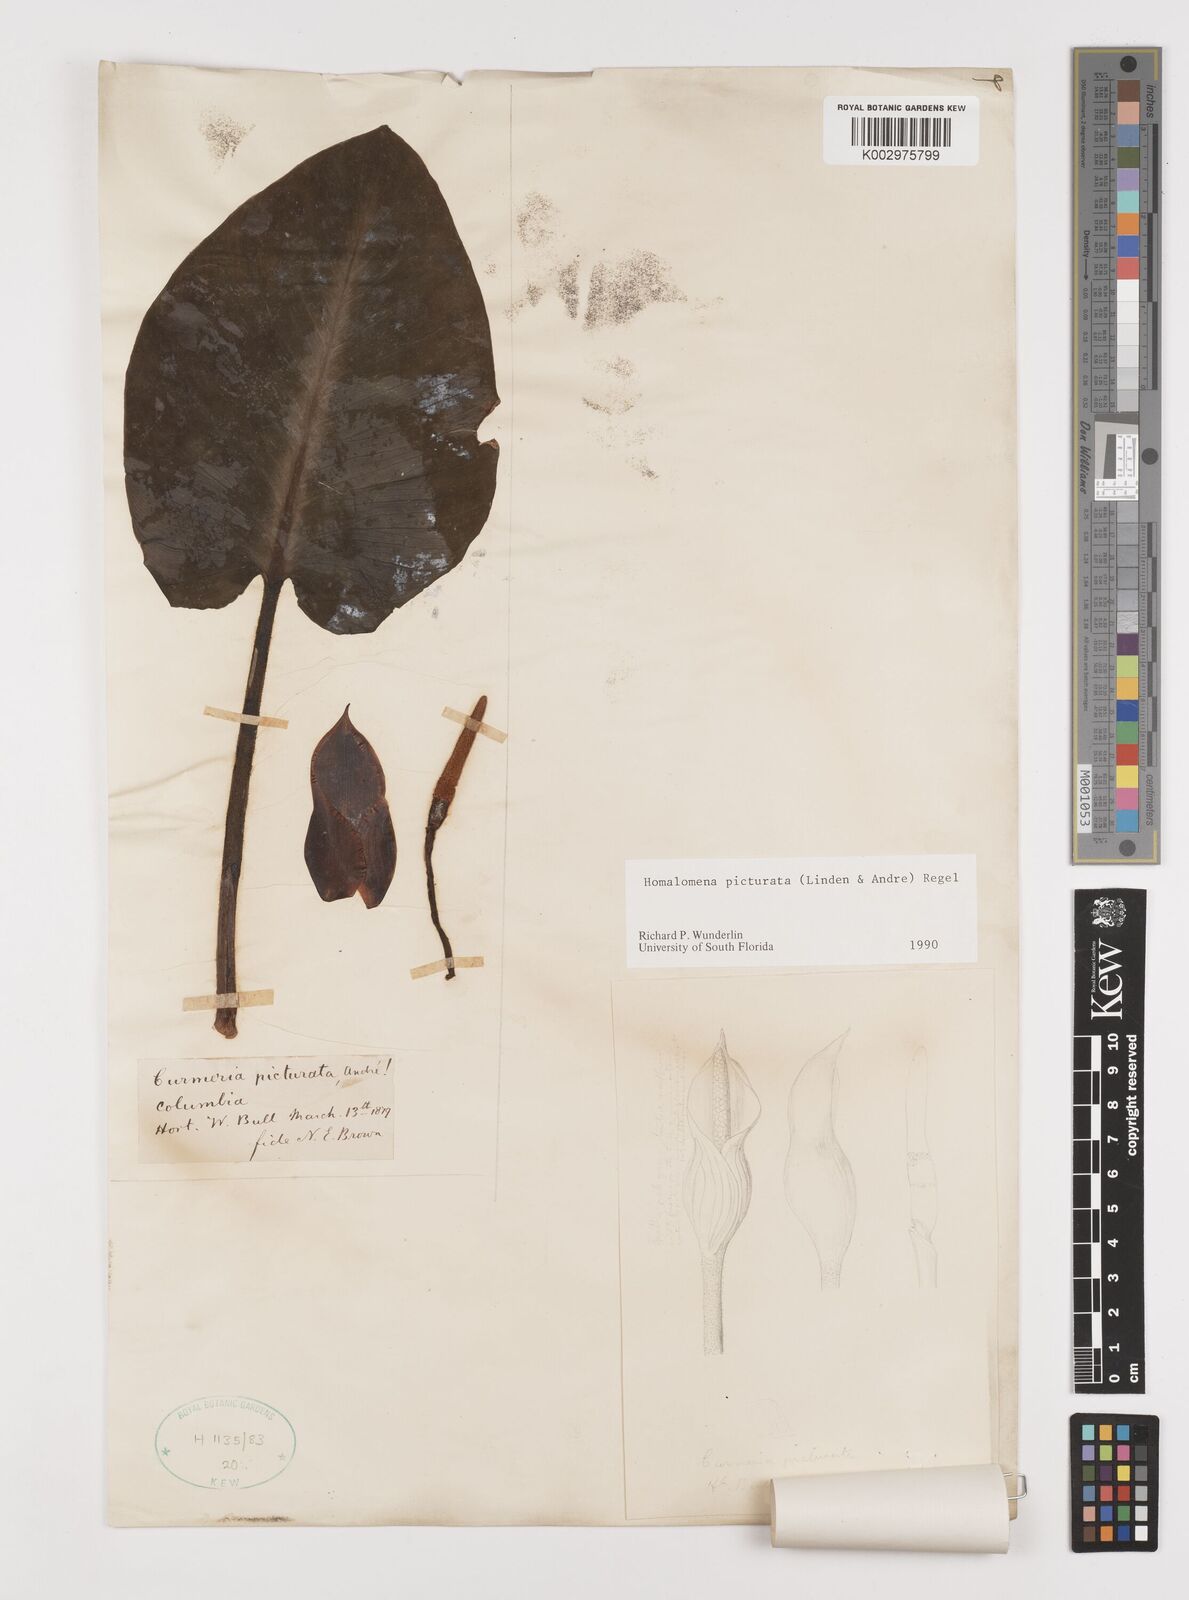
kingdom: Plantae
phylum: Tracheophyta
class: Liliopsida
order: Alismatales
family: Araceae
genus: Adelonema
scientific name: Adelonema picturatum
